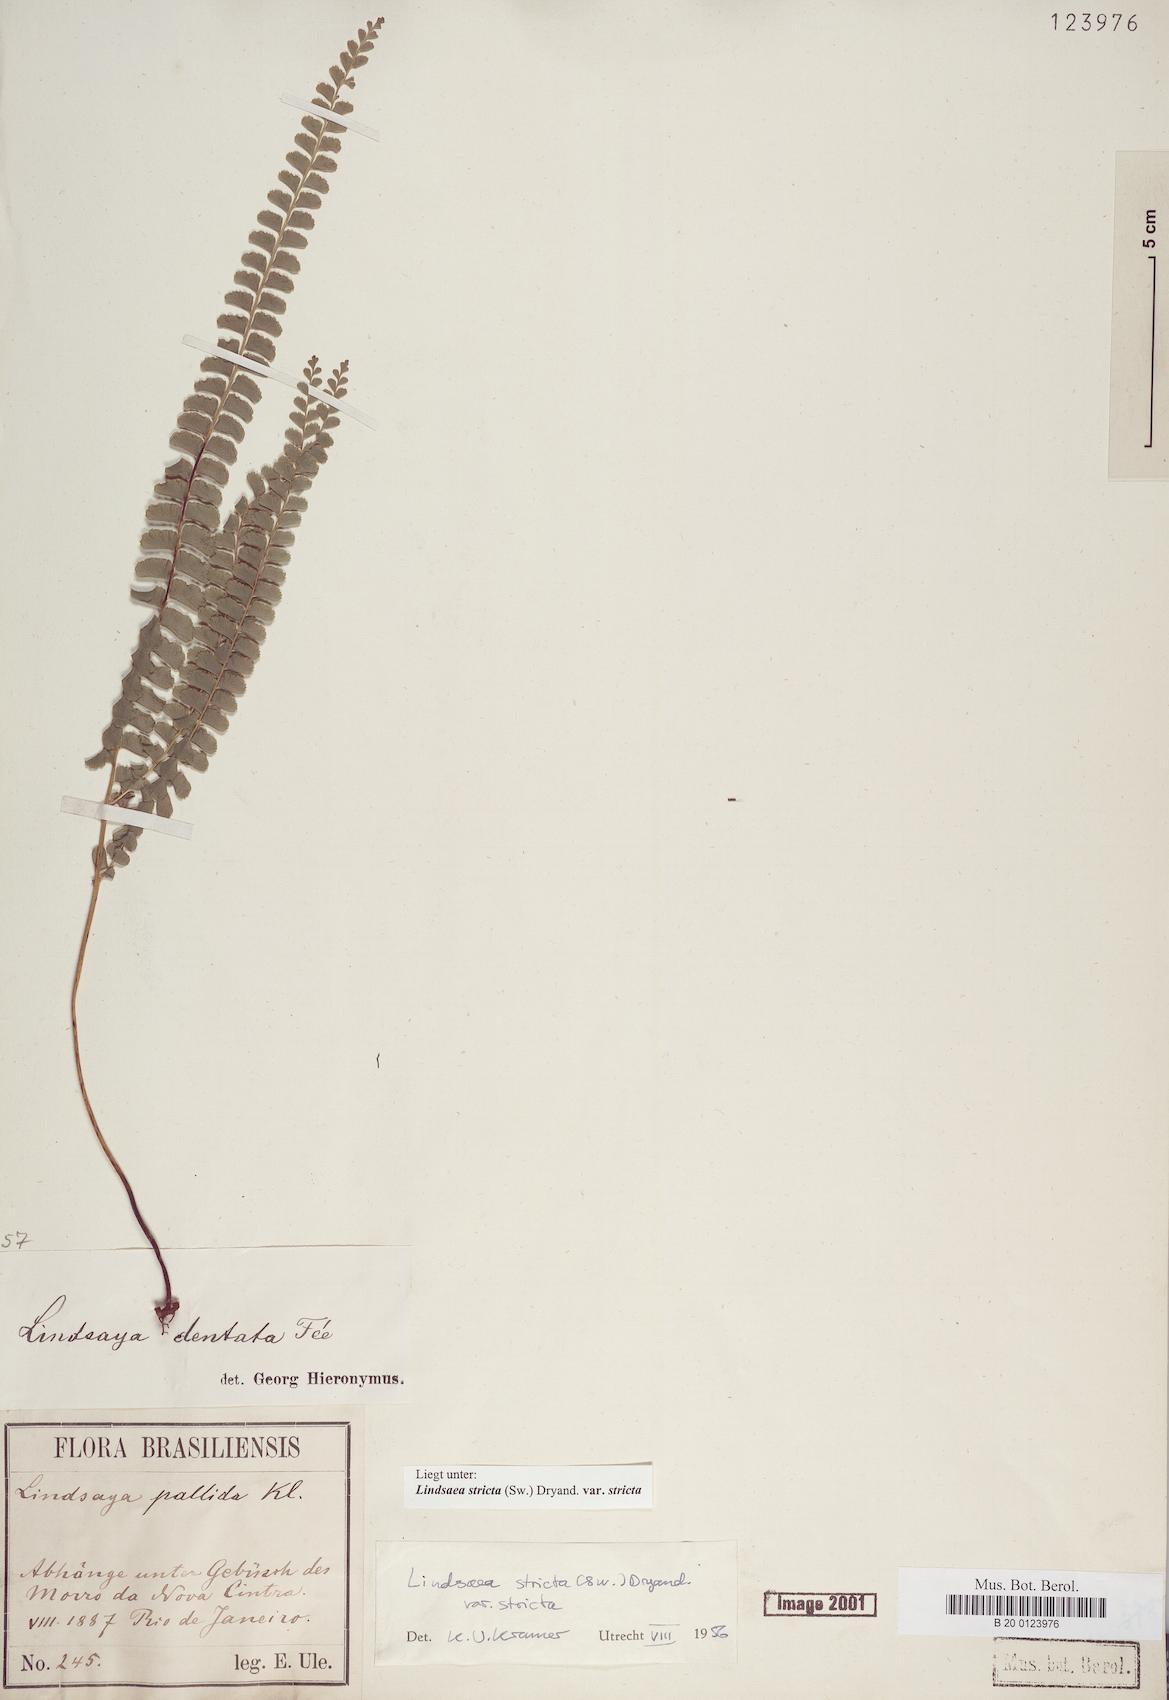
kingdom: Plantae
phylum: Tracheophyta
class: Polypodiopsida
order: Polypodiales
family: Lindsaeaceae
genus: Lindsaea
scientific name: Lindsaea stricta
